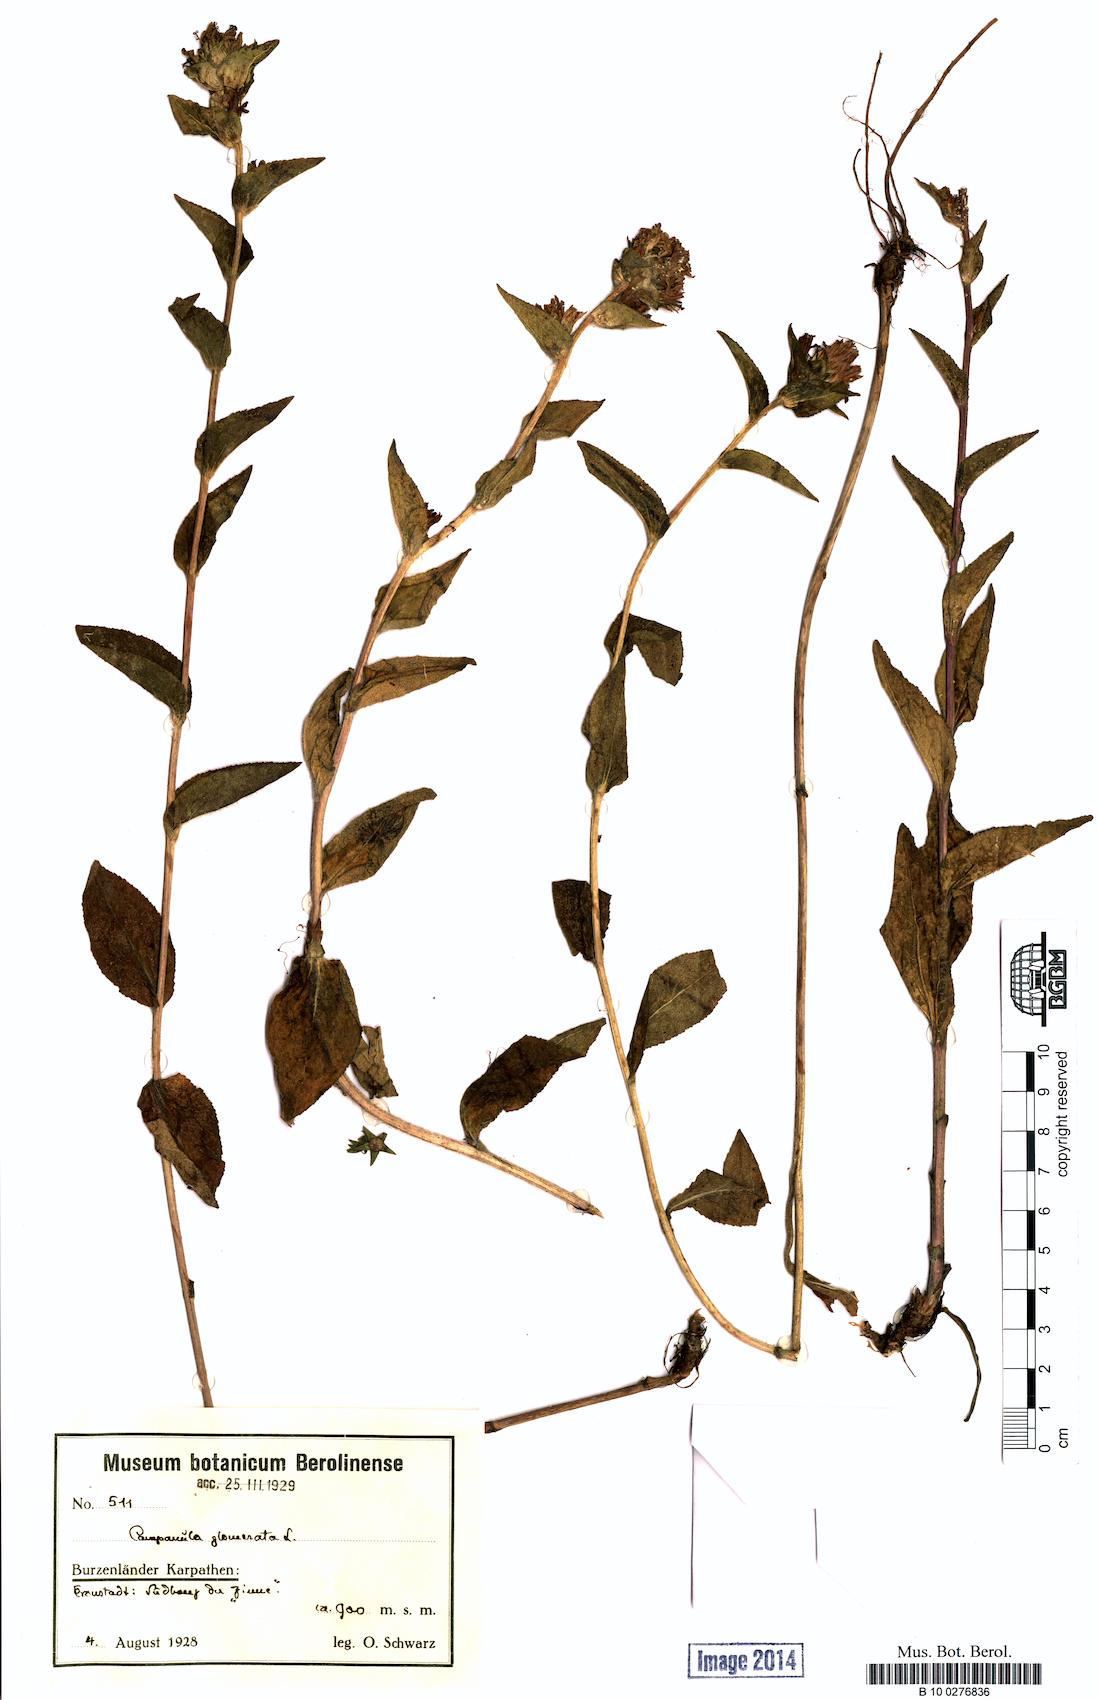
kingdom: Plantae
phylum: Tracheophyta
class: Magnoliopsida
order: Asterales
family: Campanulaceae
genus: Campanula
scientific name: Campanula glomerata
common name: Clustered bellflower
